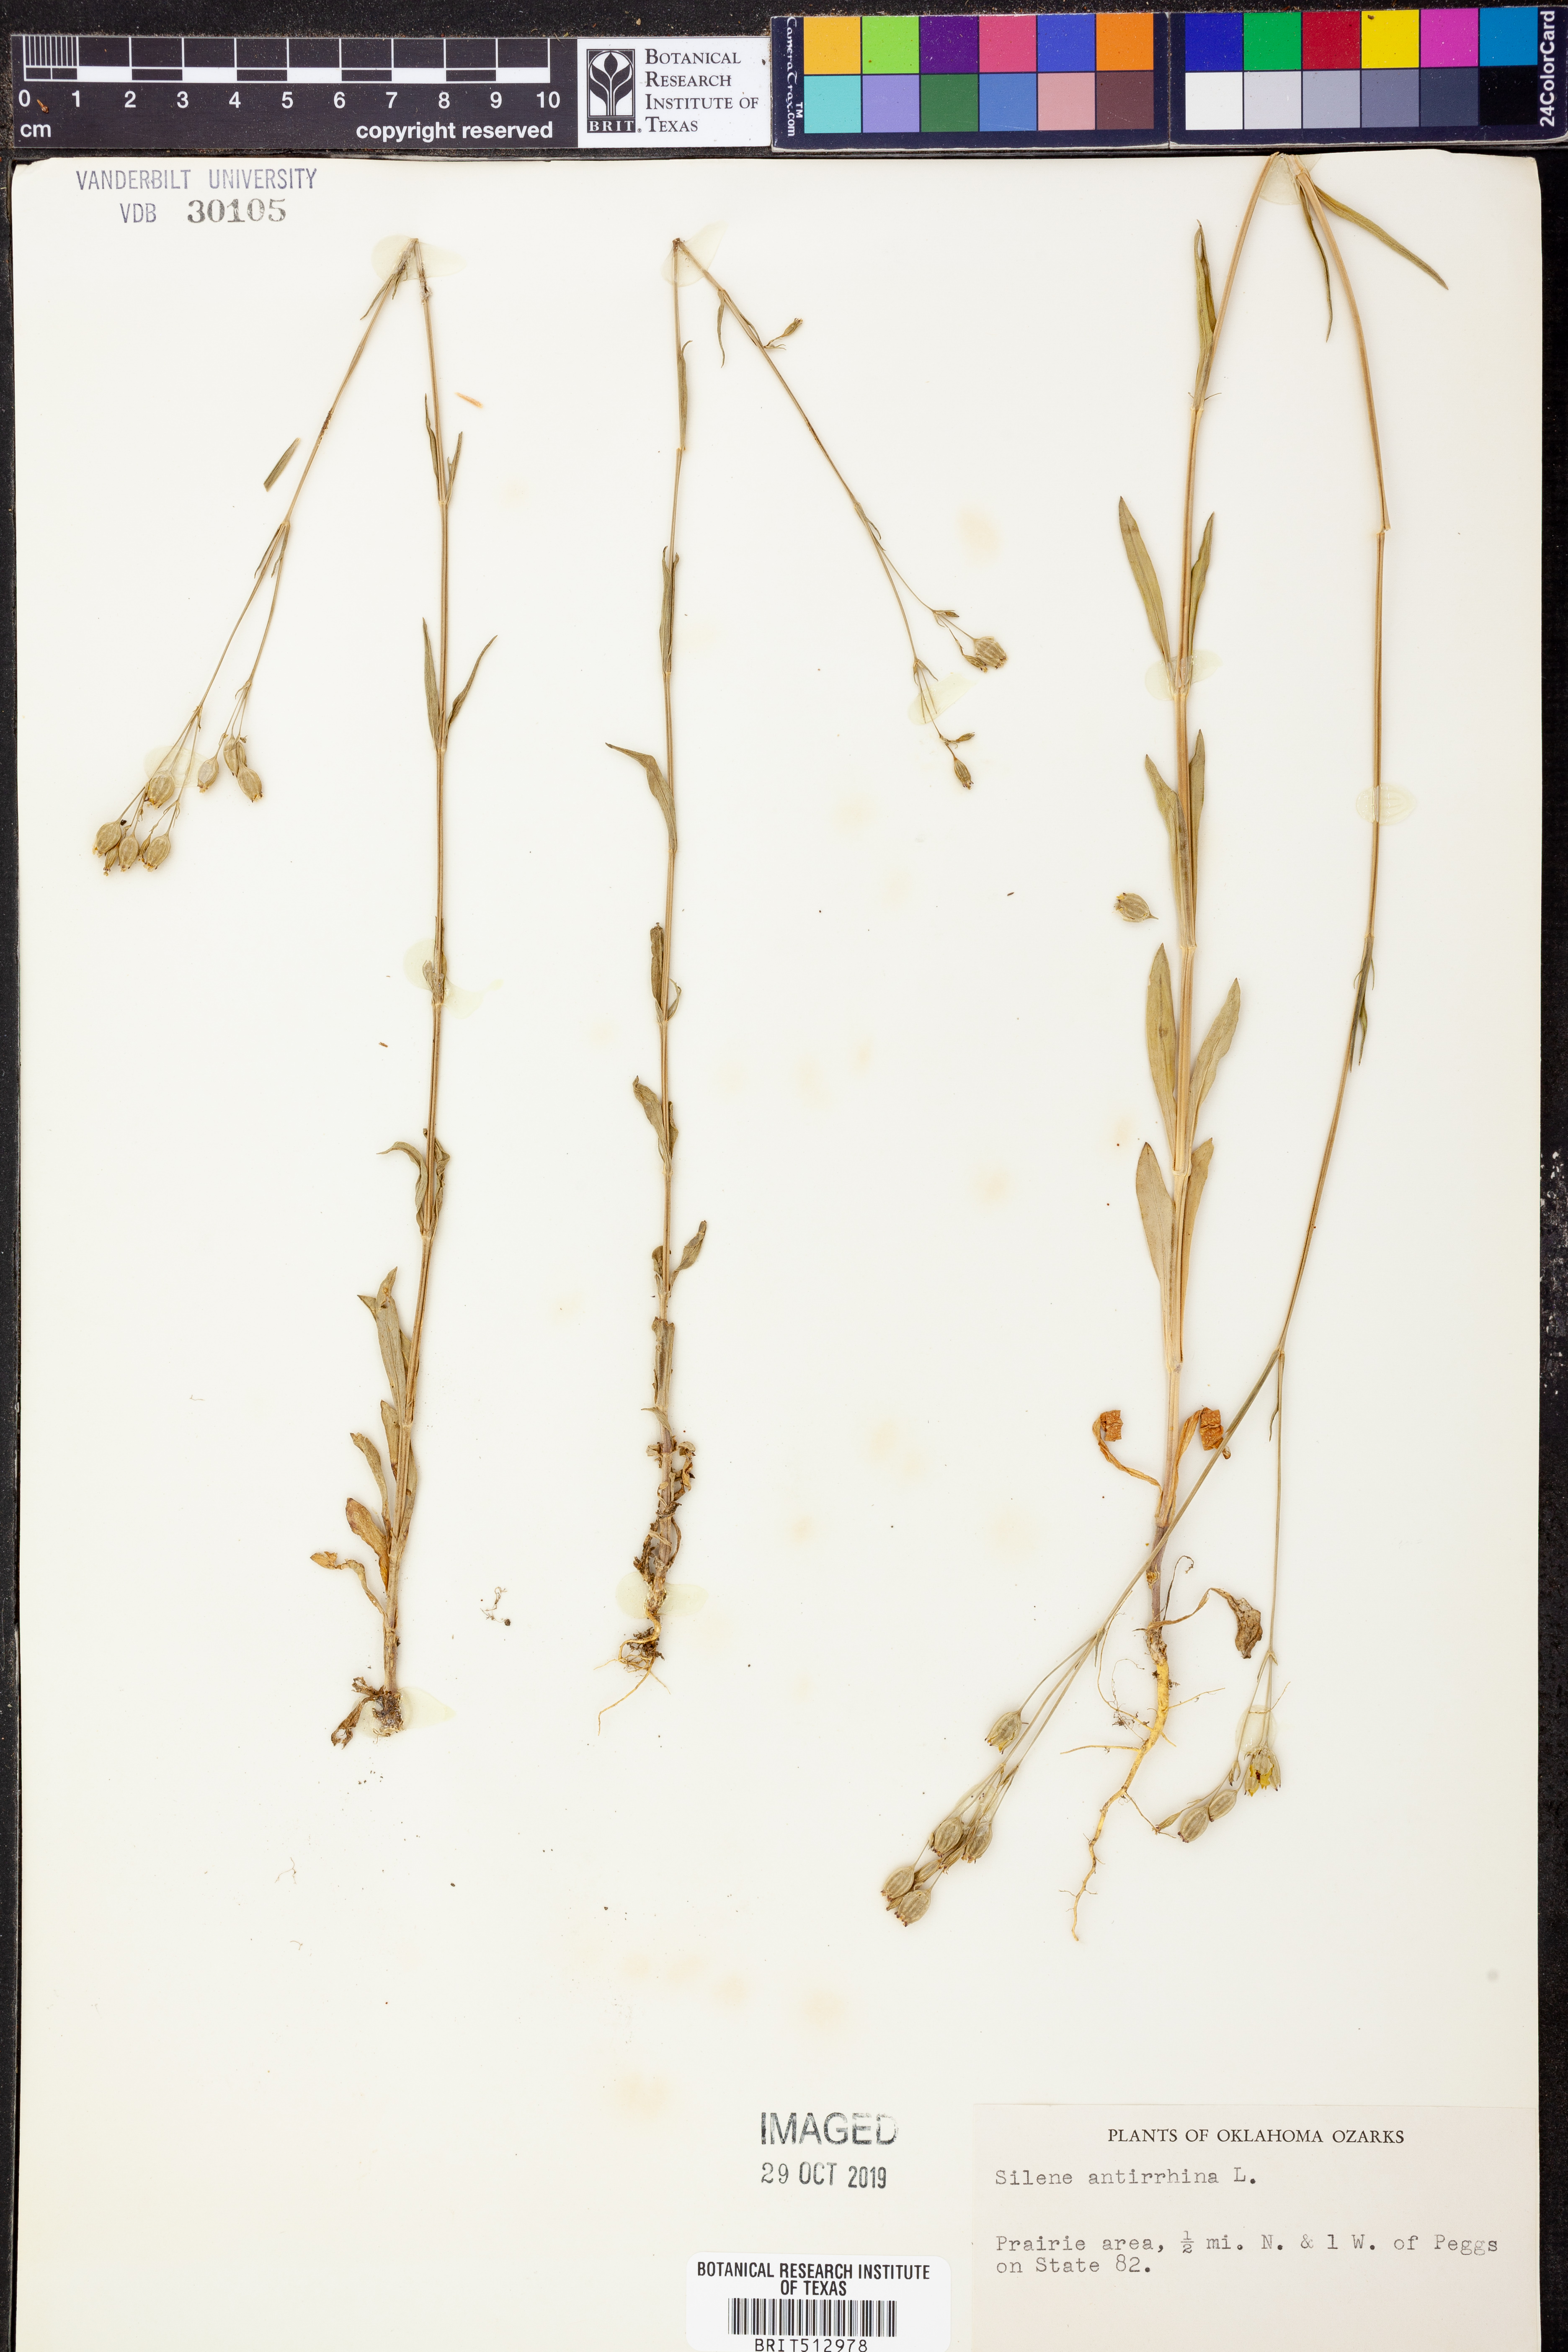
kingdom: Plantae
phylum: Tracheophyta
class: Magnoliopsida
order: Caryophyllales
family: Caryophyllaceae
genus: Silene
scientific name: Silene antirrhina
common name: Sleepy catchfly
